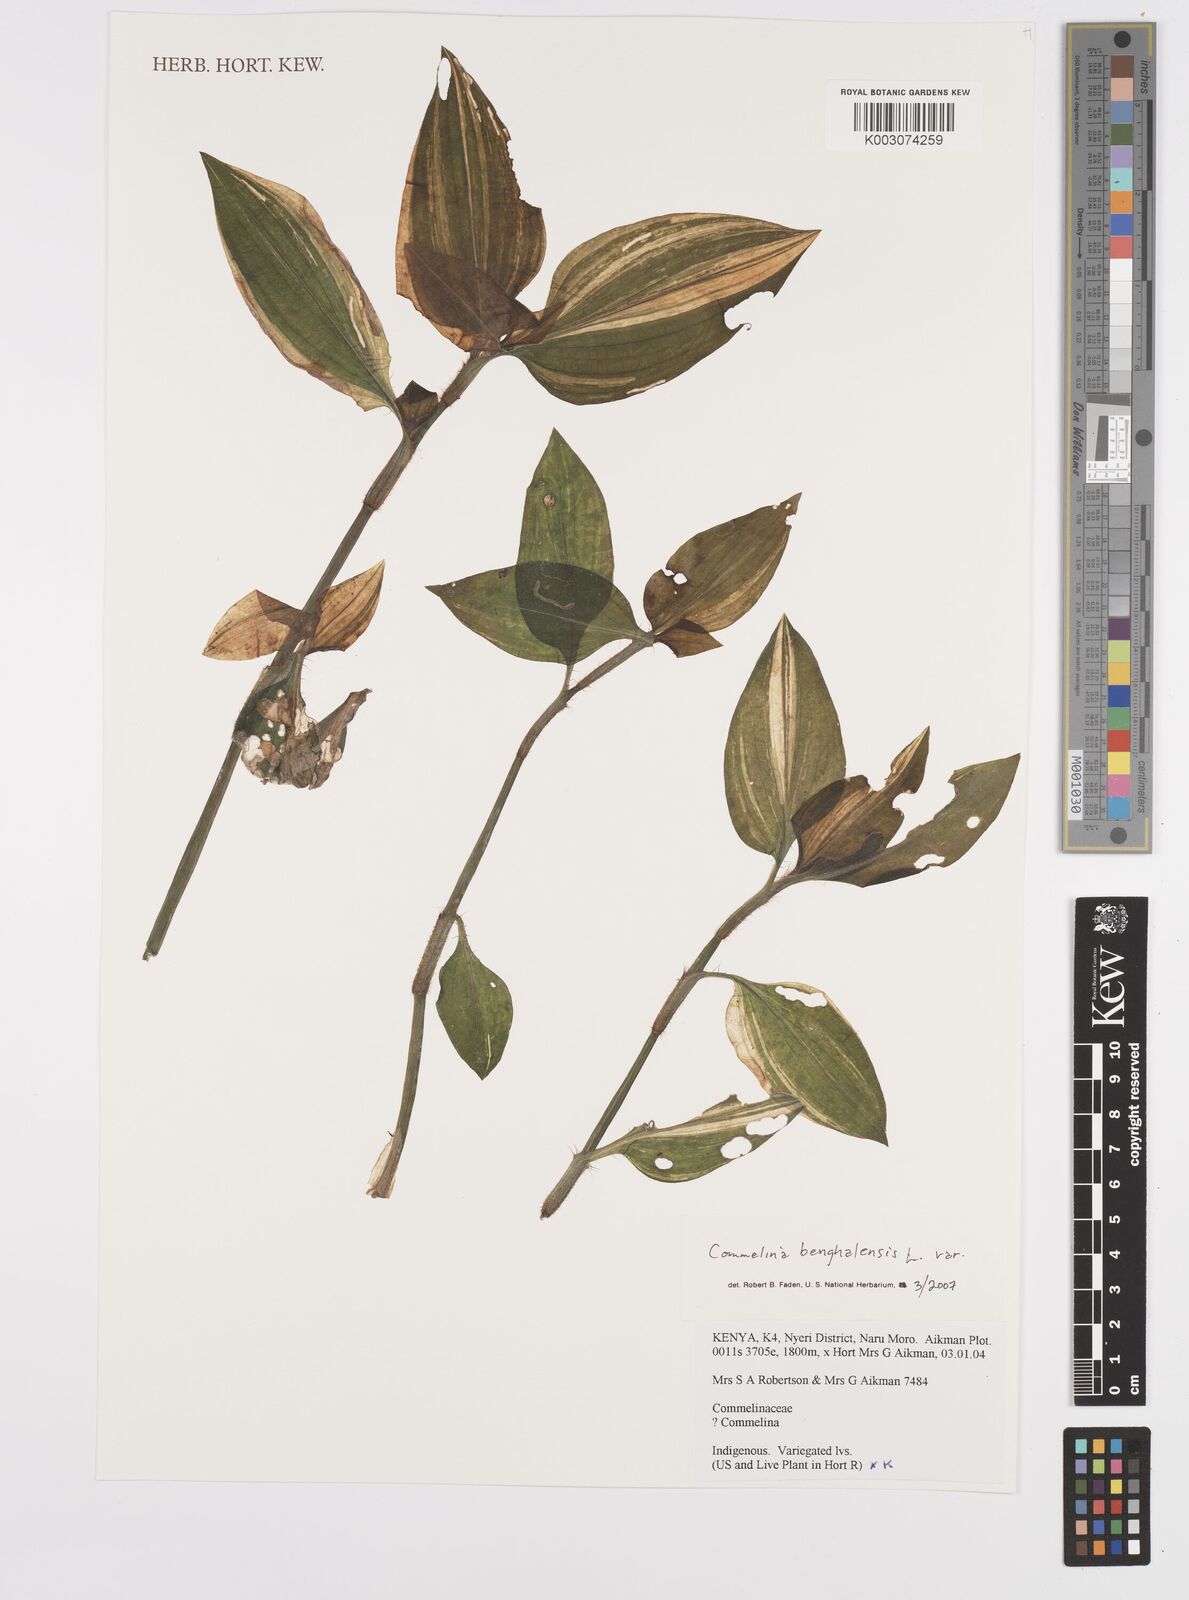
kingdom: Plantae
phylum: Tracheophyta
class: Liliopsida
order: Commelinales
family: Commelinaceae
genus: Commelina
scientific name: Commelina benghalensis
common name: Jio
